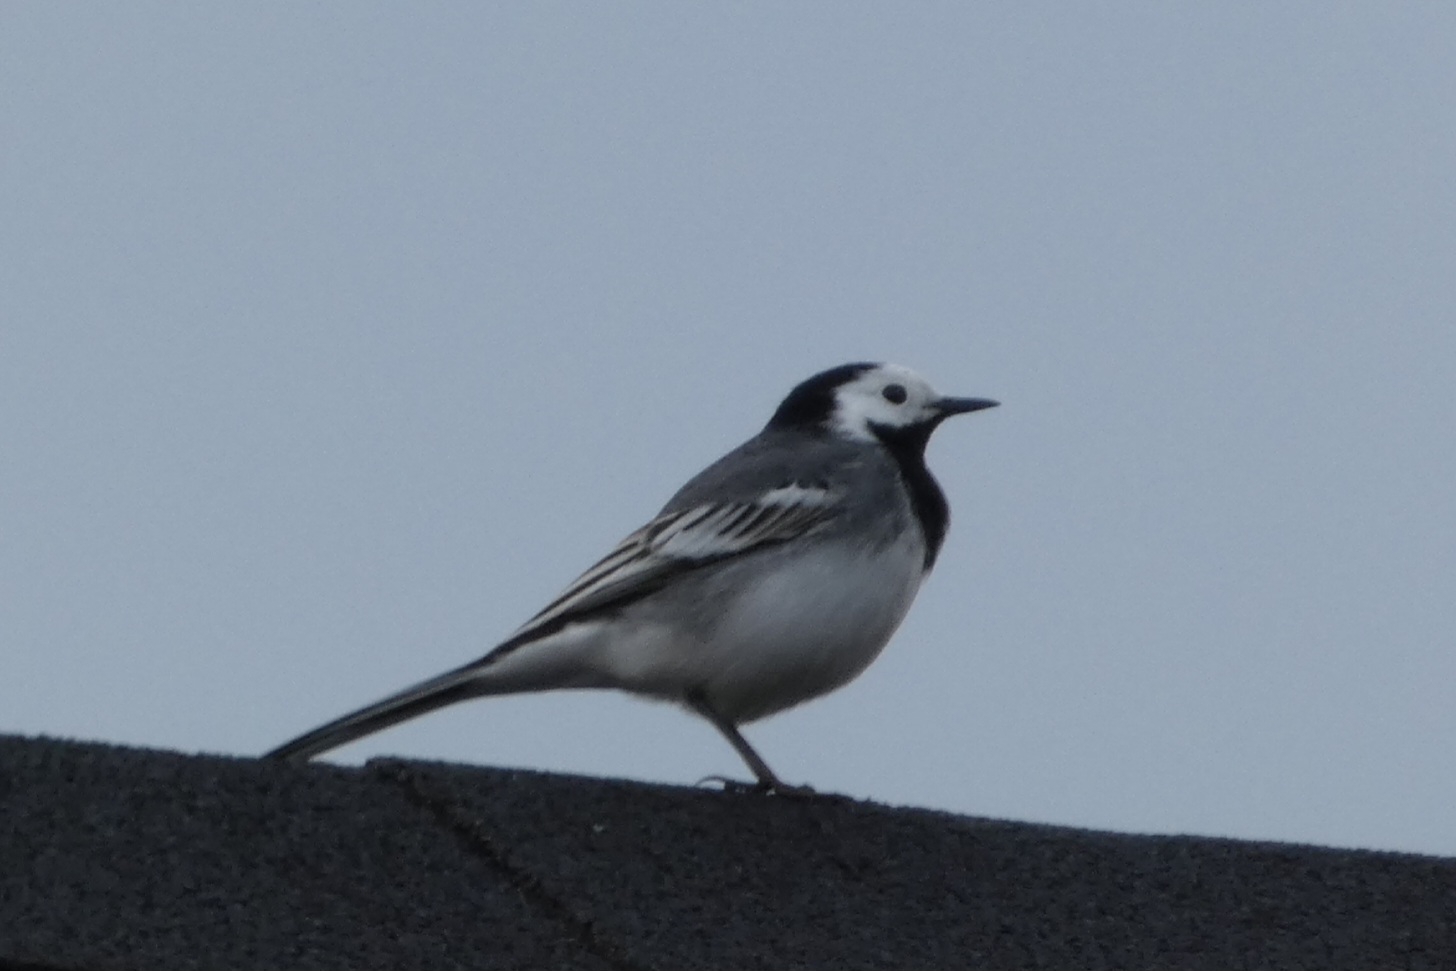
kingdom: Animalia
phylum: Chordata
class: Aves
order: Passeriformes
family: Motacillidae
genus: Motacilla
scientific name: Motacilla alba
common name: Hvid vipstjert
